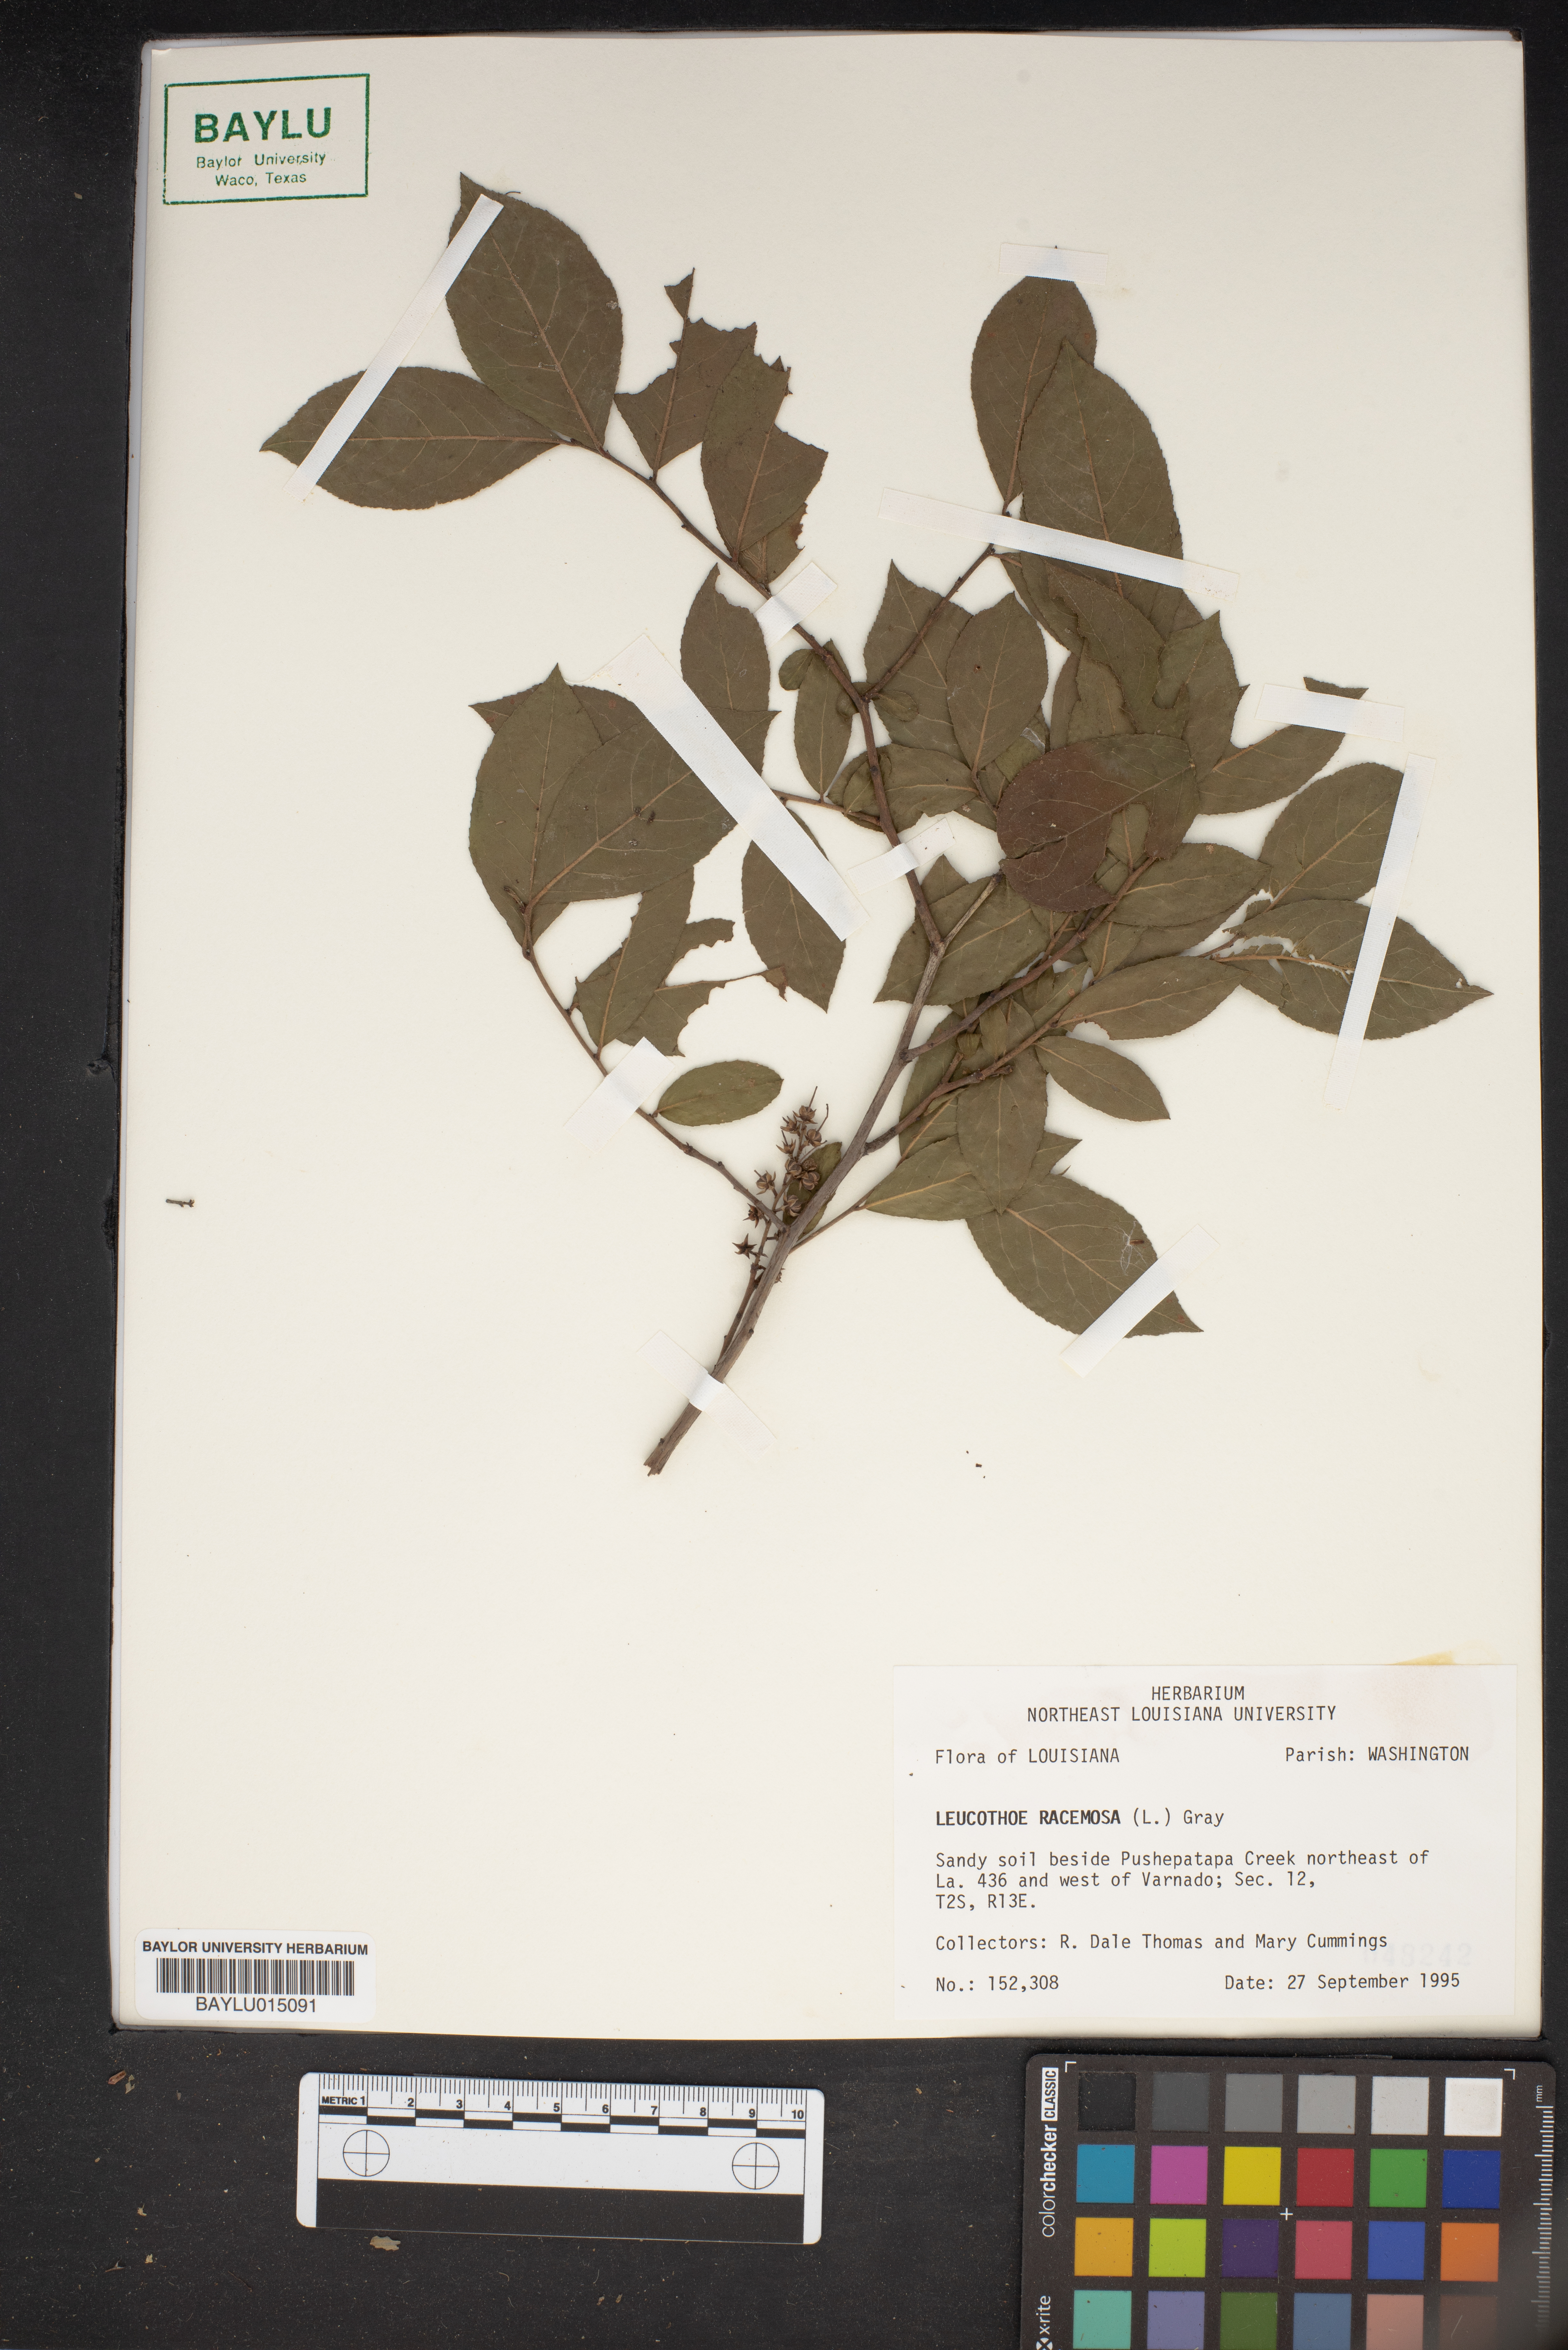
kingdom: Plantae
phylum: Tracheophyta
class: Magnoliopsida
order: Ericales
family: Ericaceae
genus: Eubotrys
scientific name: Eubotrys racemosa
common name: Fetterbush
